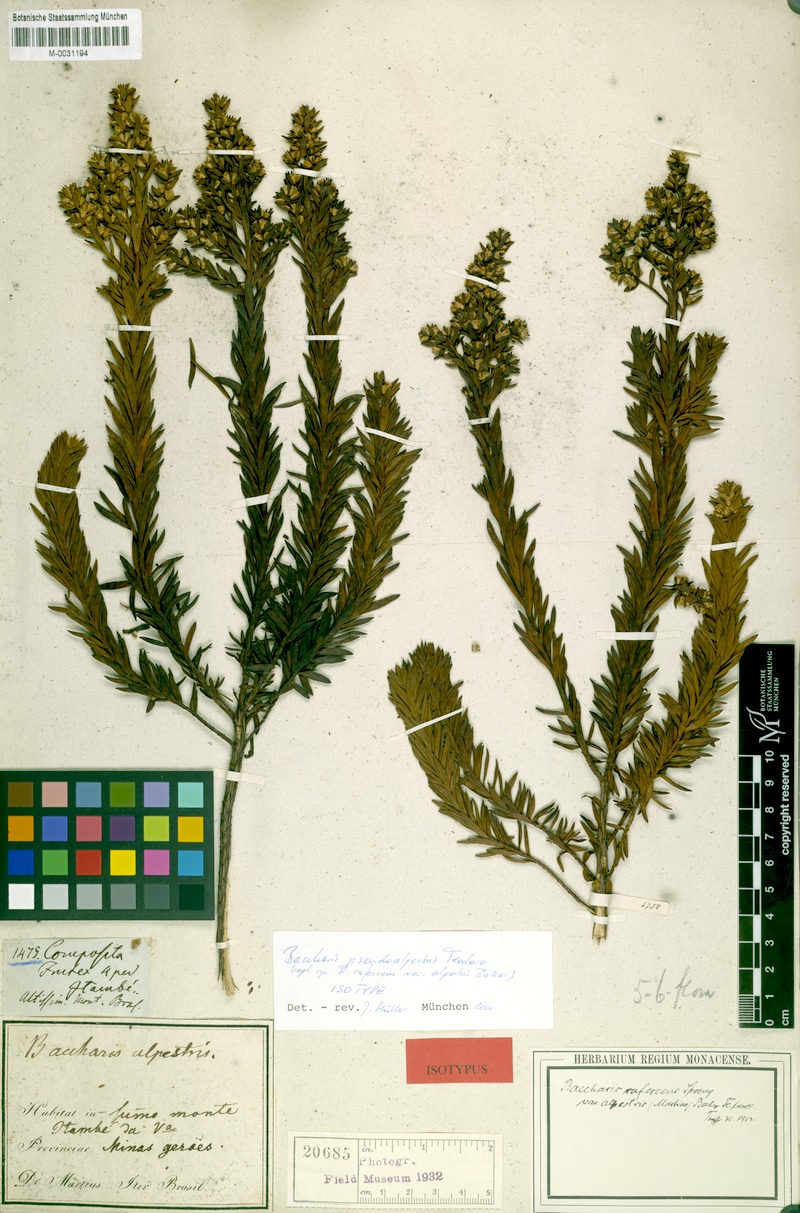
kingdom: Plantae
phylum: Tracheophyta
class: Magnoliopsida
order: Asterales
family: Asteraceae
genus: Baccharis
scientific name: Baccharis rufescens
